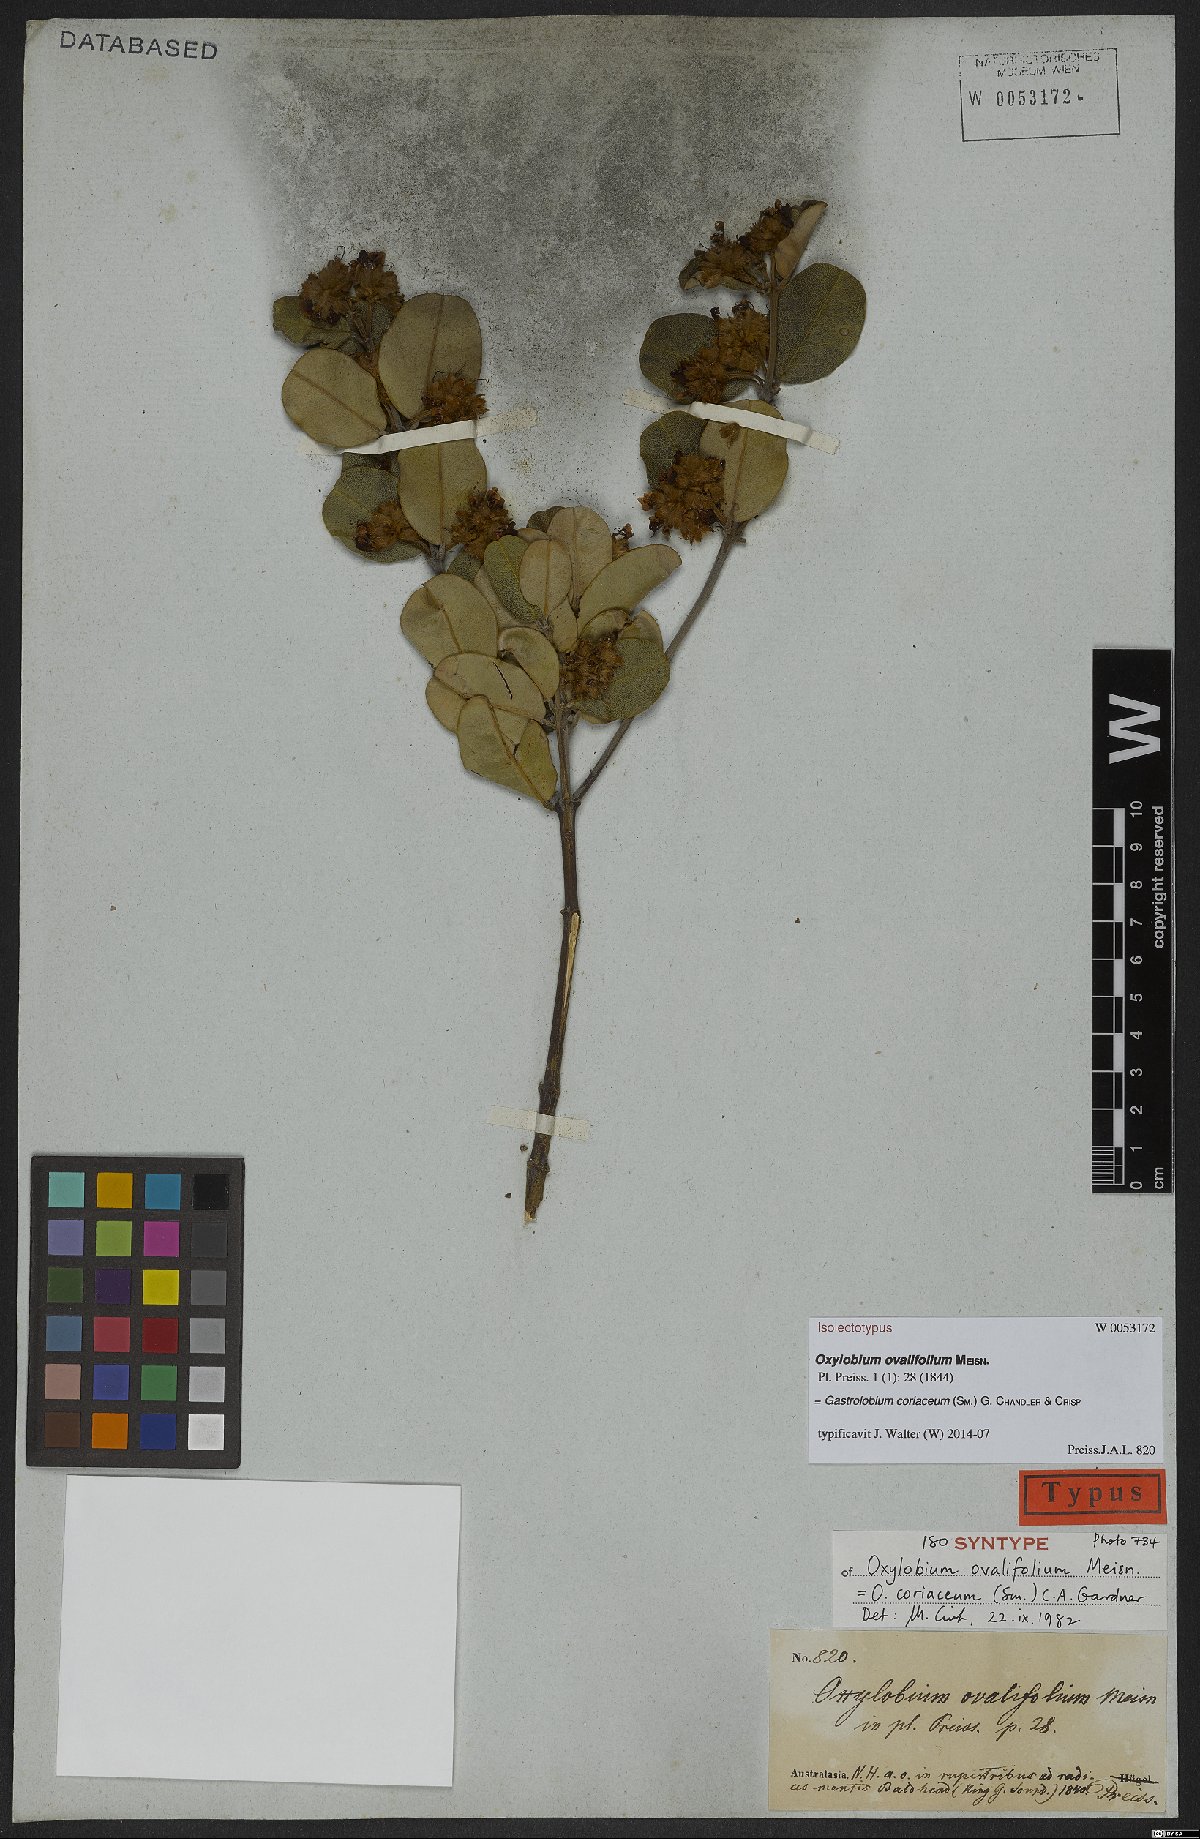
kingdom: Plantae
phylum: Tracheophyta
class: Magnoliopsida
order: Fabales
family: Fabaceae
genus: Gastrolobium
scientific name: Gastrolobium coriaceum
